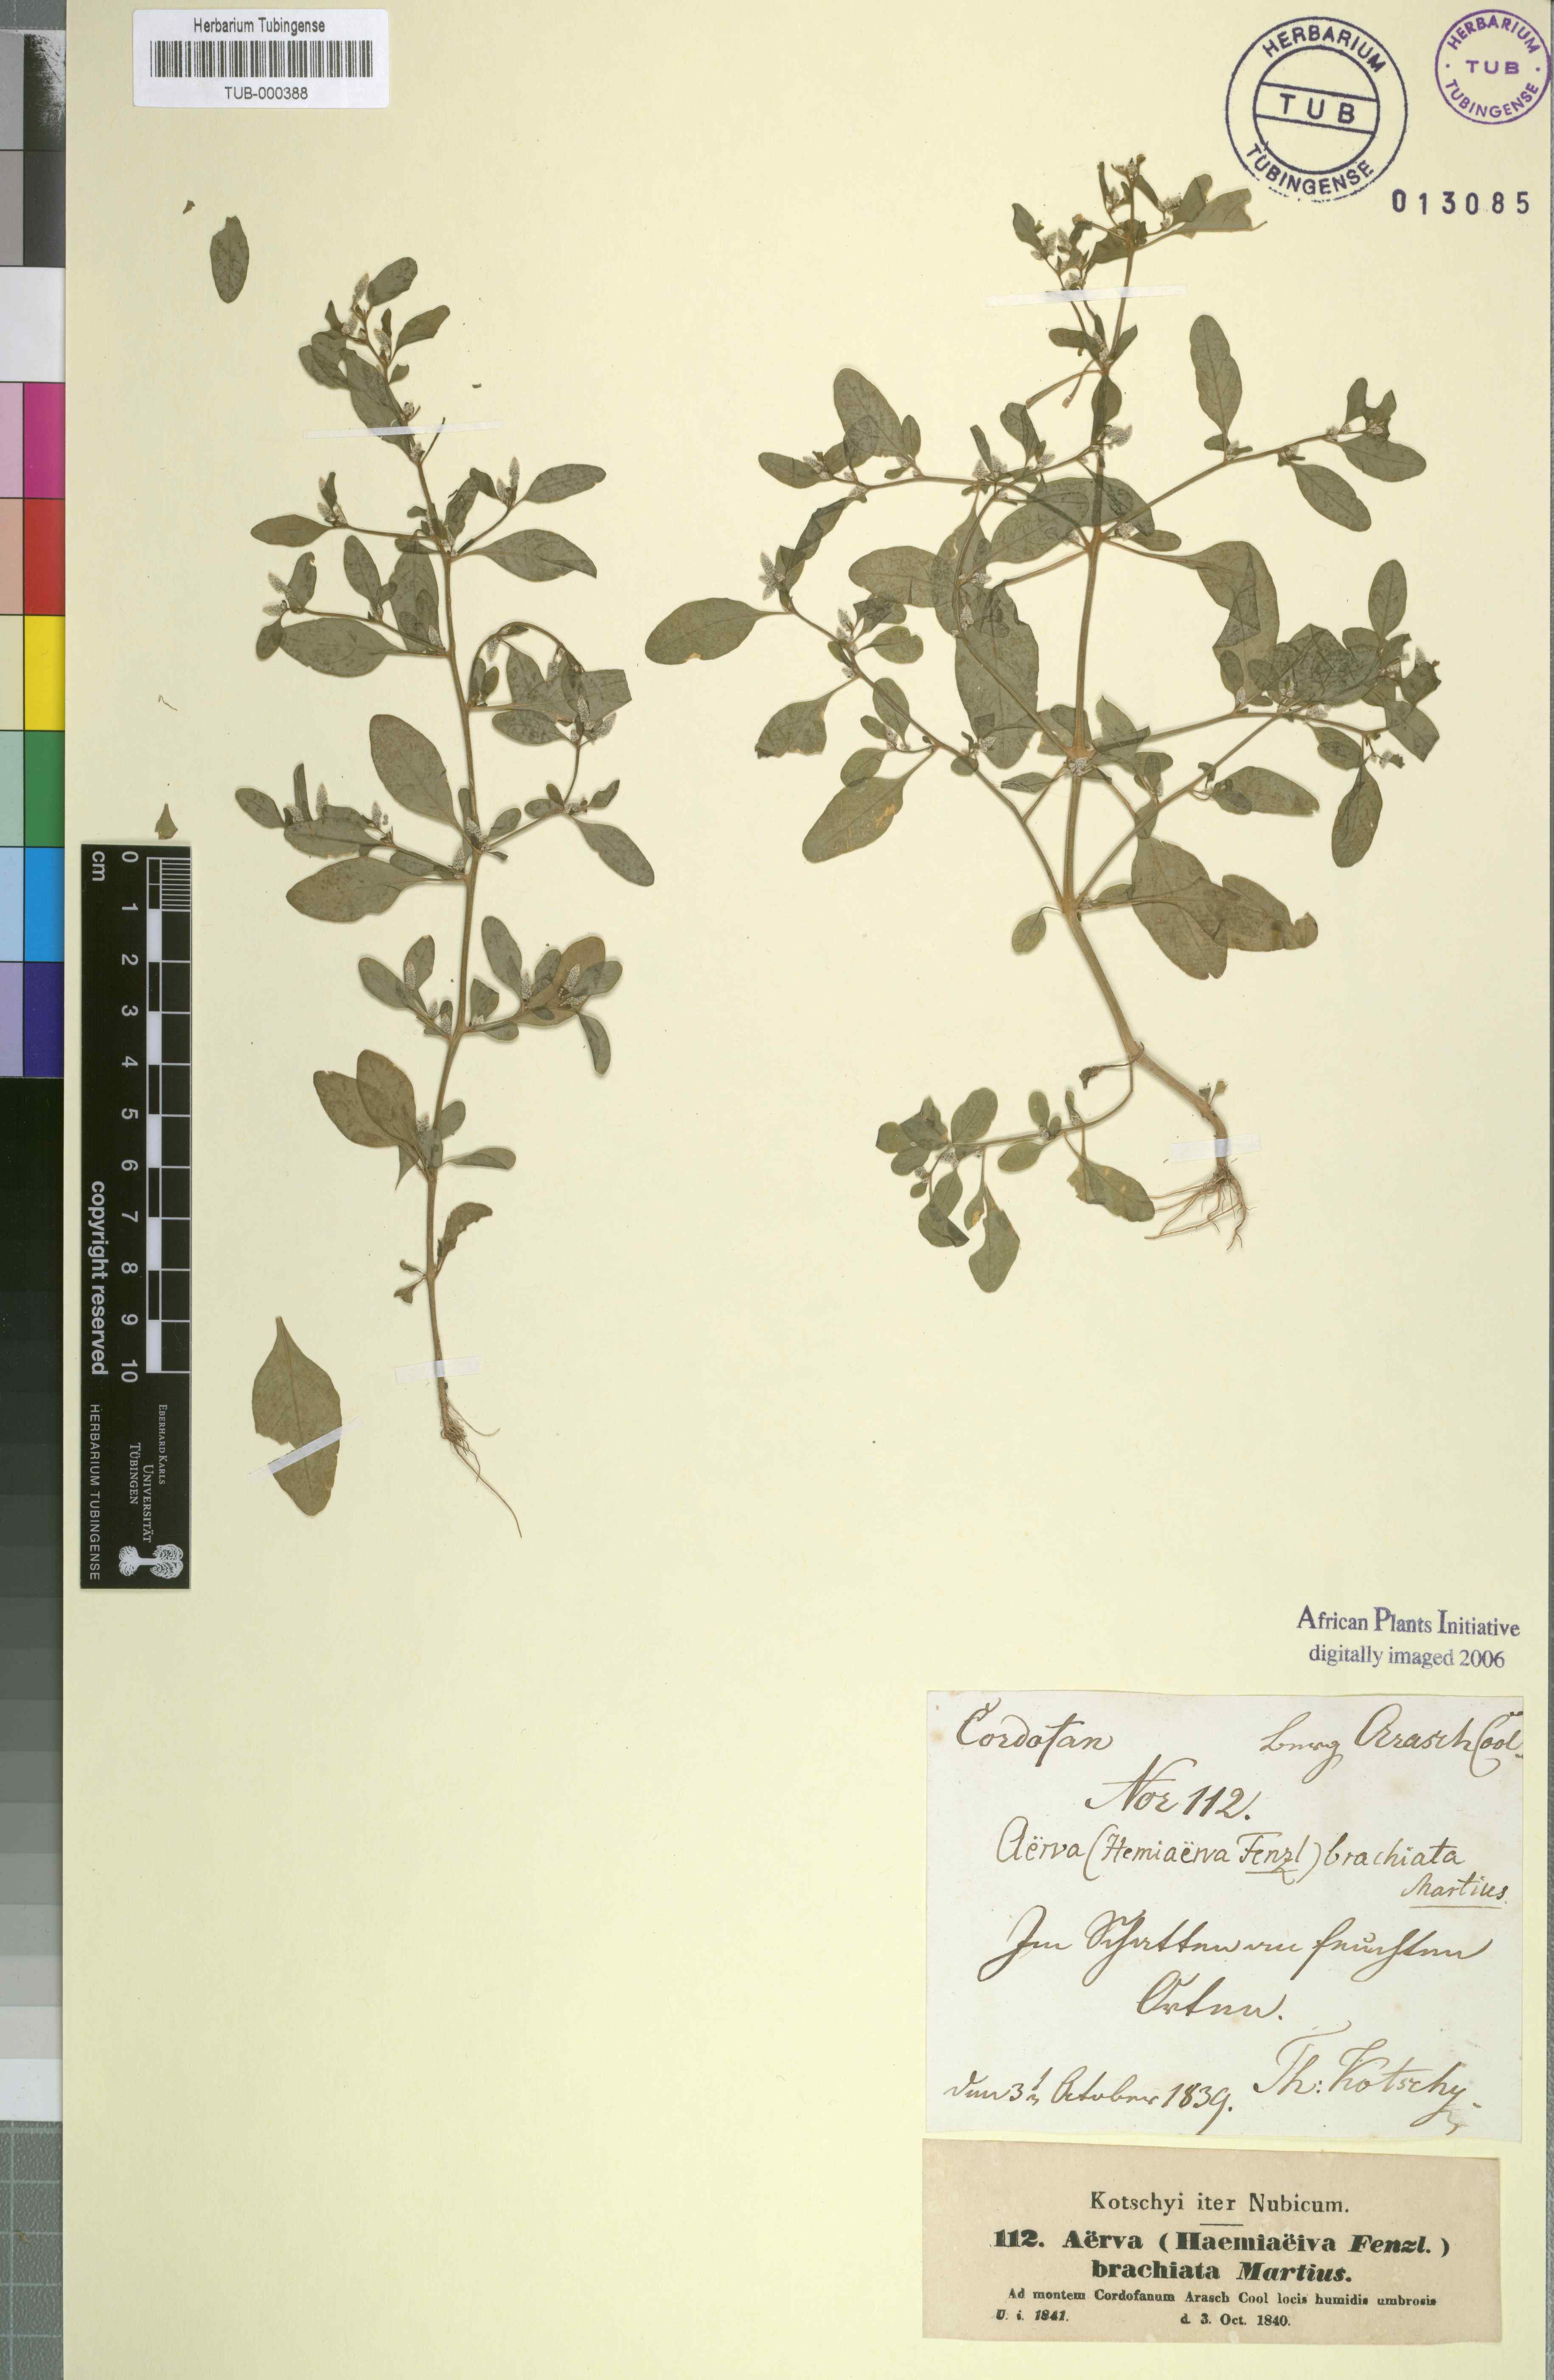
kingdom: Plantae
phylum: Tracheophyta
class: Magnoliopsida
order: Caryophyllales
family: Amaranthaceae
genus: Nothosaerva
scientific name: Nothosaerva brachiata
